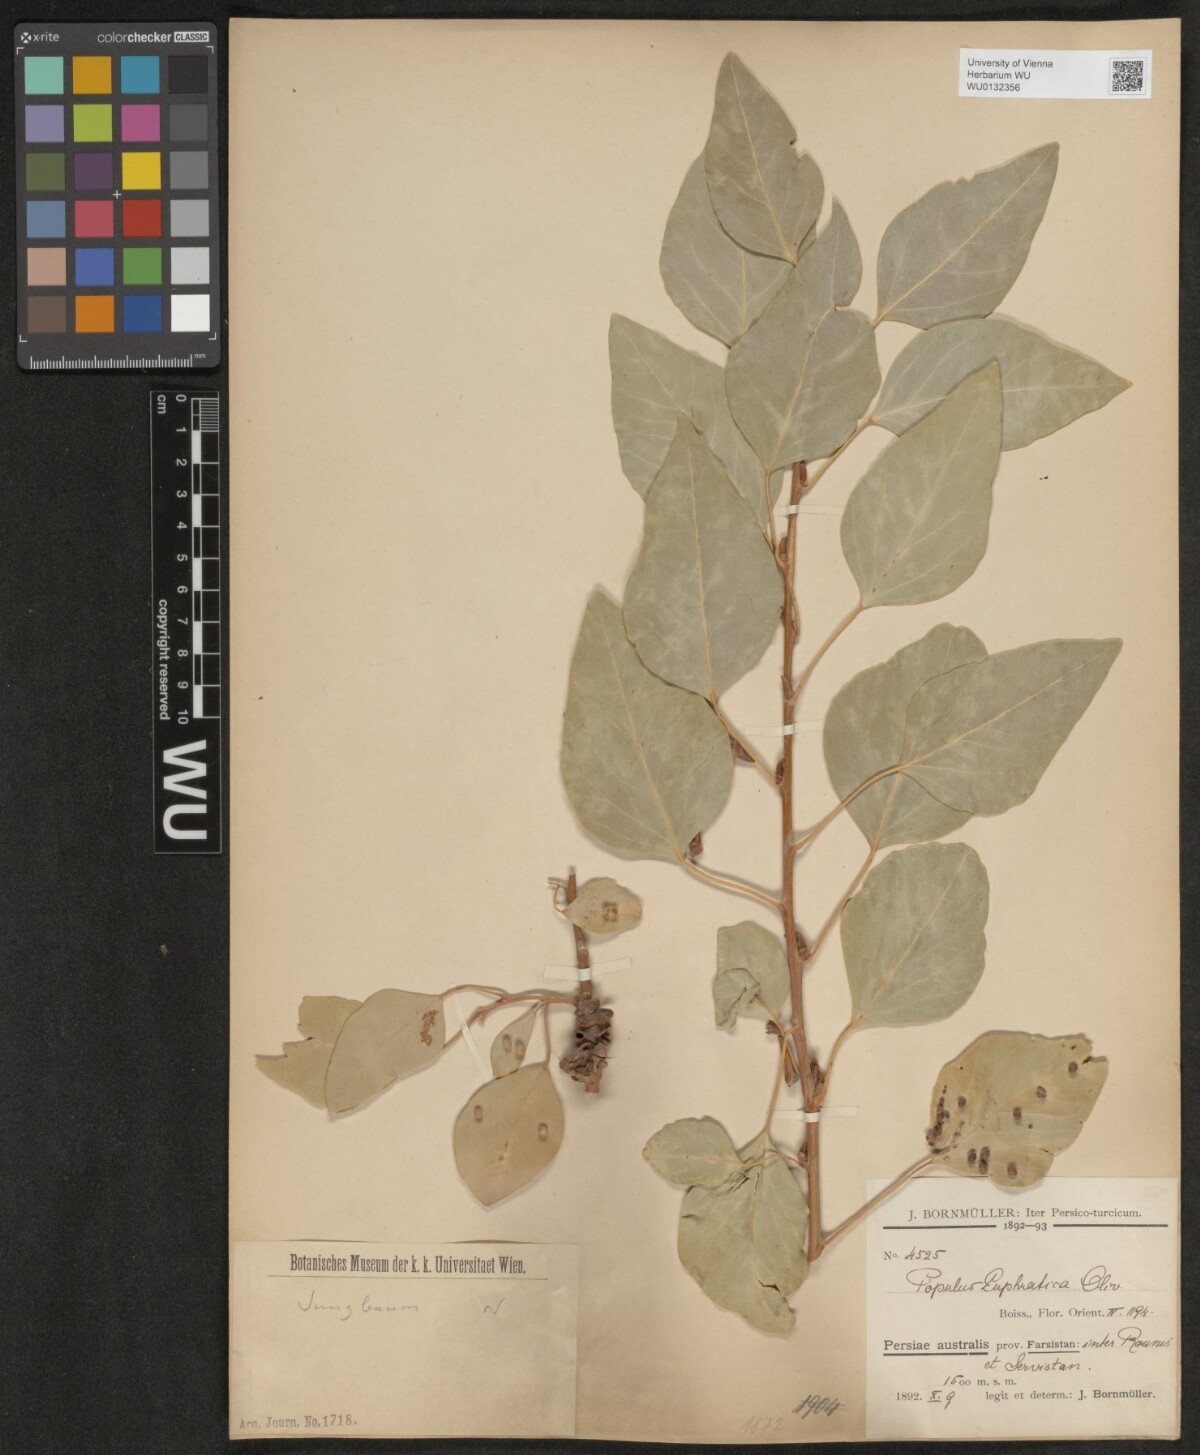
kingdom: Plantae
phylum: Tracheophyta
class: Magnoliopsida
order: Malpighiales
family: Salicaceae
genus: Populus
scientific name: Populus euphratica
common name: Euphrates poplar
